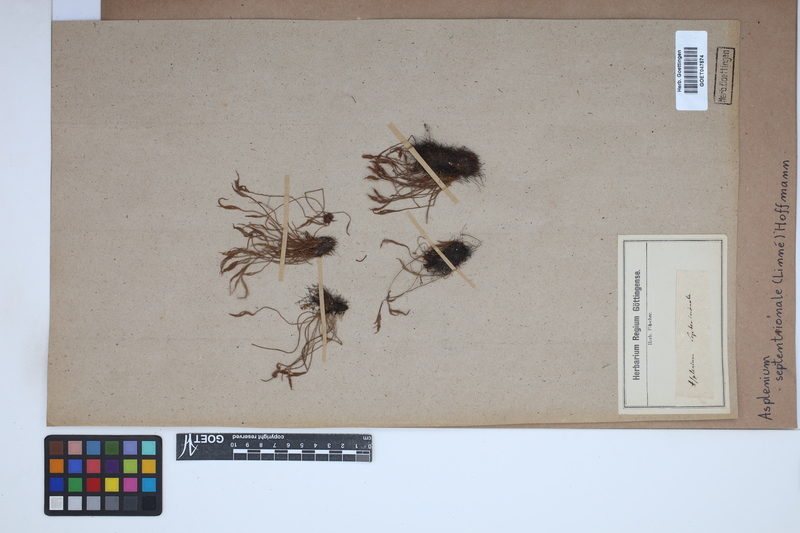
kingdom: Plantae
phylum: Tracheophyta
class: Polypodiopsida
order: Polypodiales
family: Aspleniaceae
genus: Asplenium
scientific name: Asplenium septentrionale
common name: Forked spleenwort
